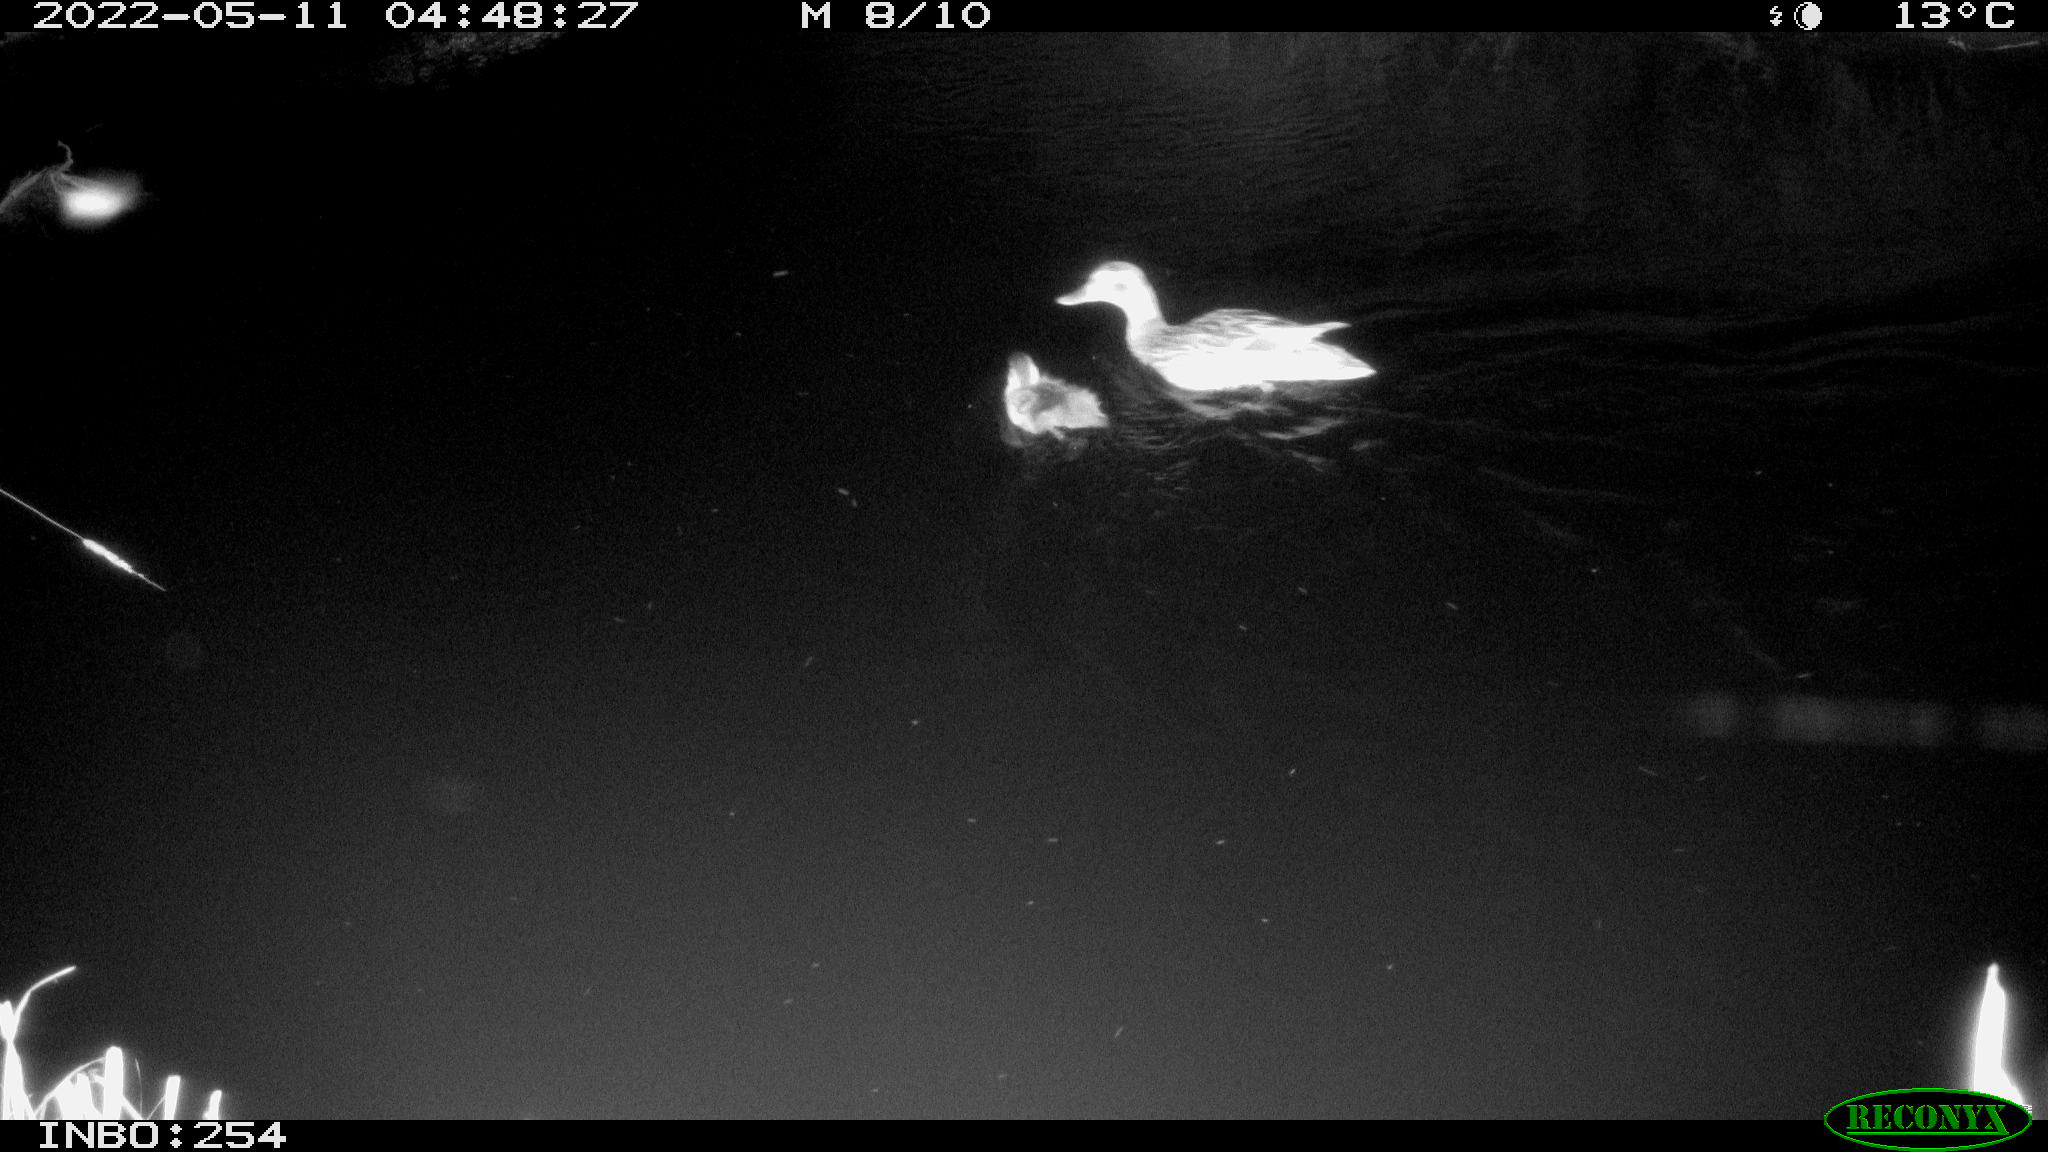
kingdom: Animalia
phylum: Chordata
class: Aves
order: Anseriformes
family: Anatidae
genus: Anas
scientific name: Anas platyrhynchos
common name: Mallard
